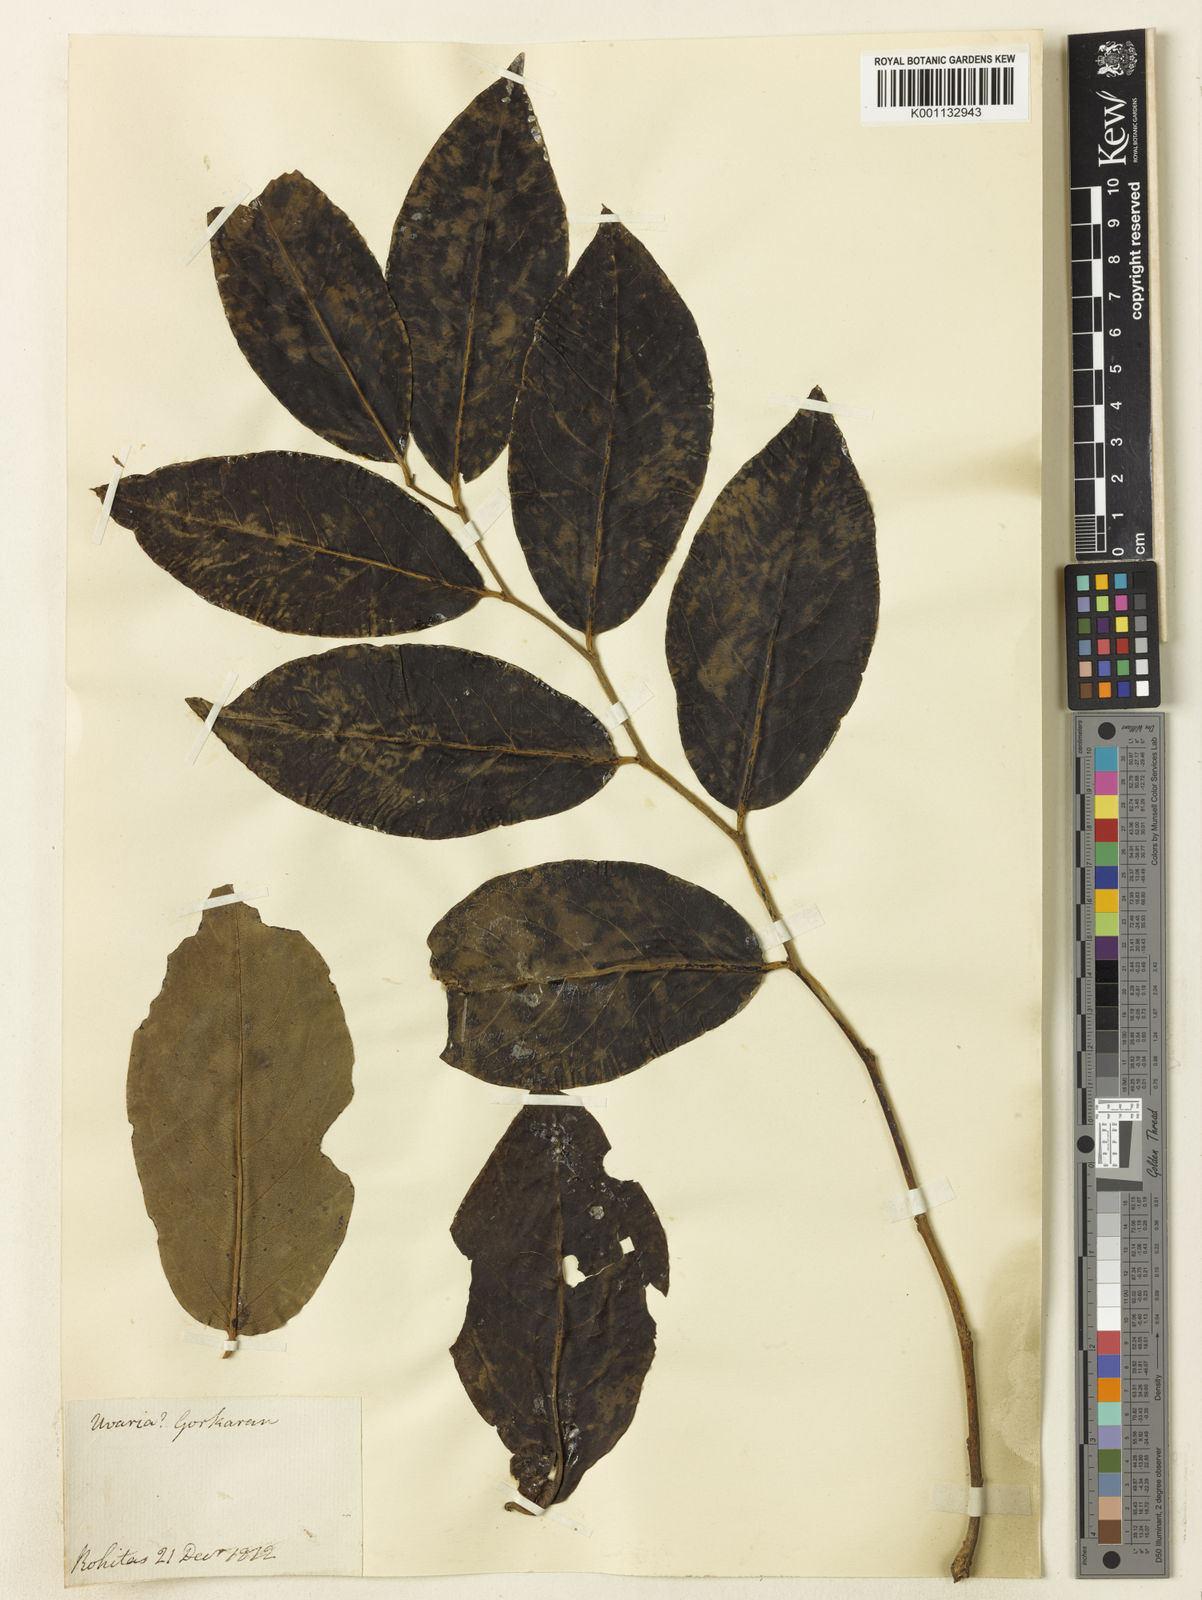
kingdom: Plantae
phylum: Tracheophyta
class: Magnoliopsida
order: Ericales
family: Ebenaceae
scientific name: Ebenaceae
